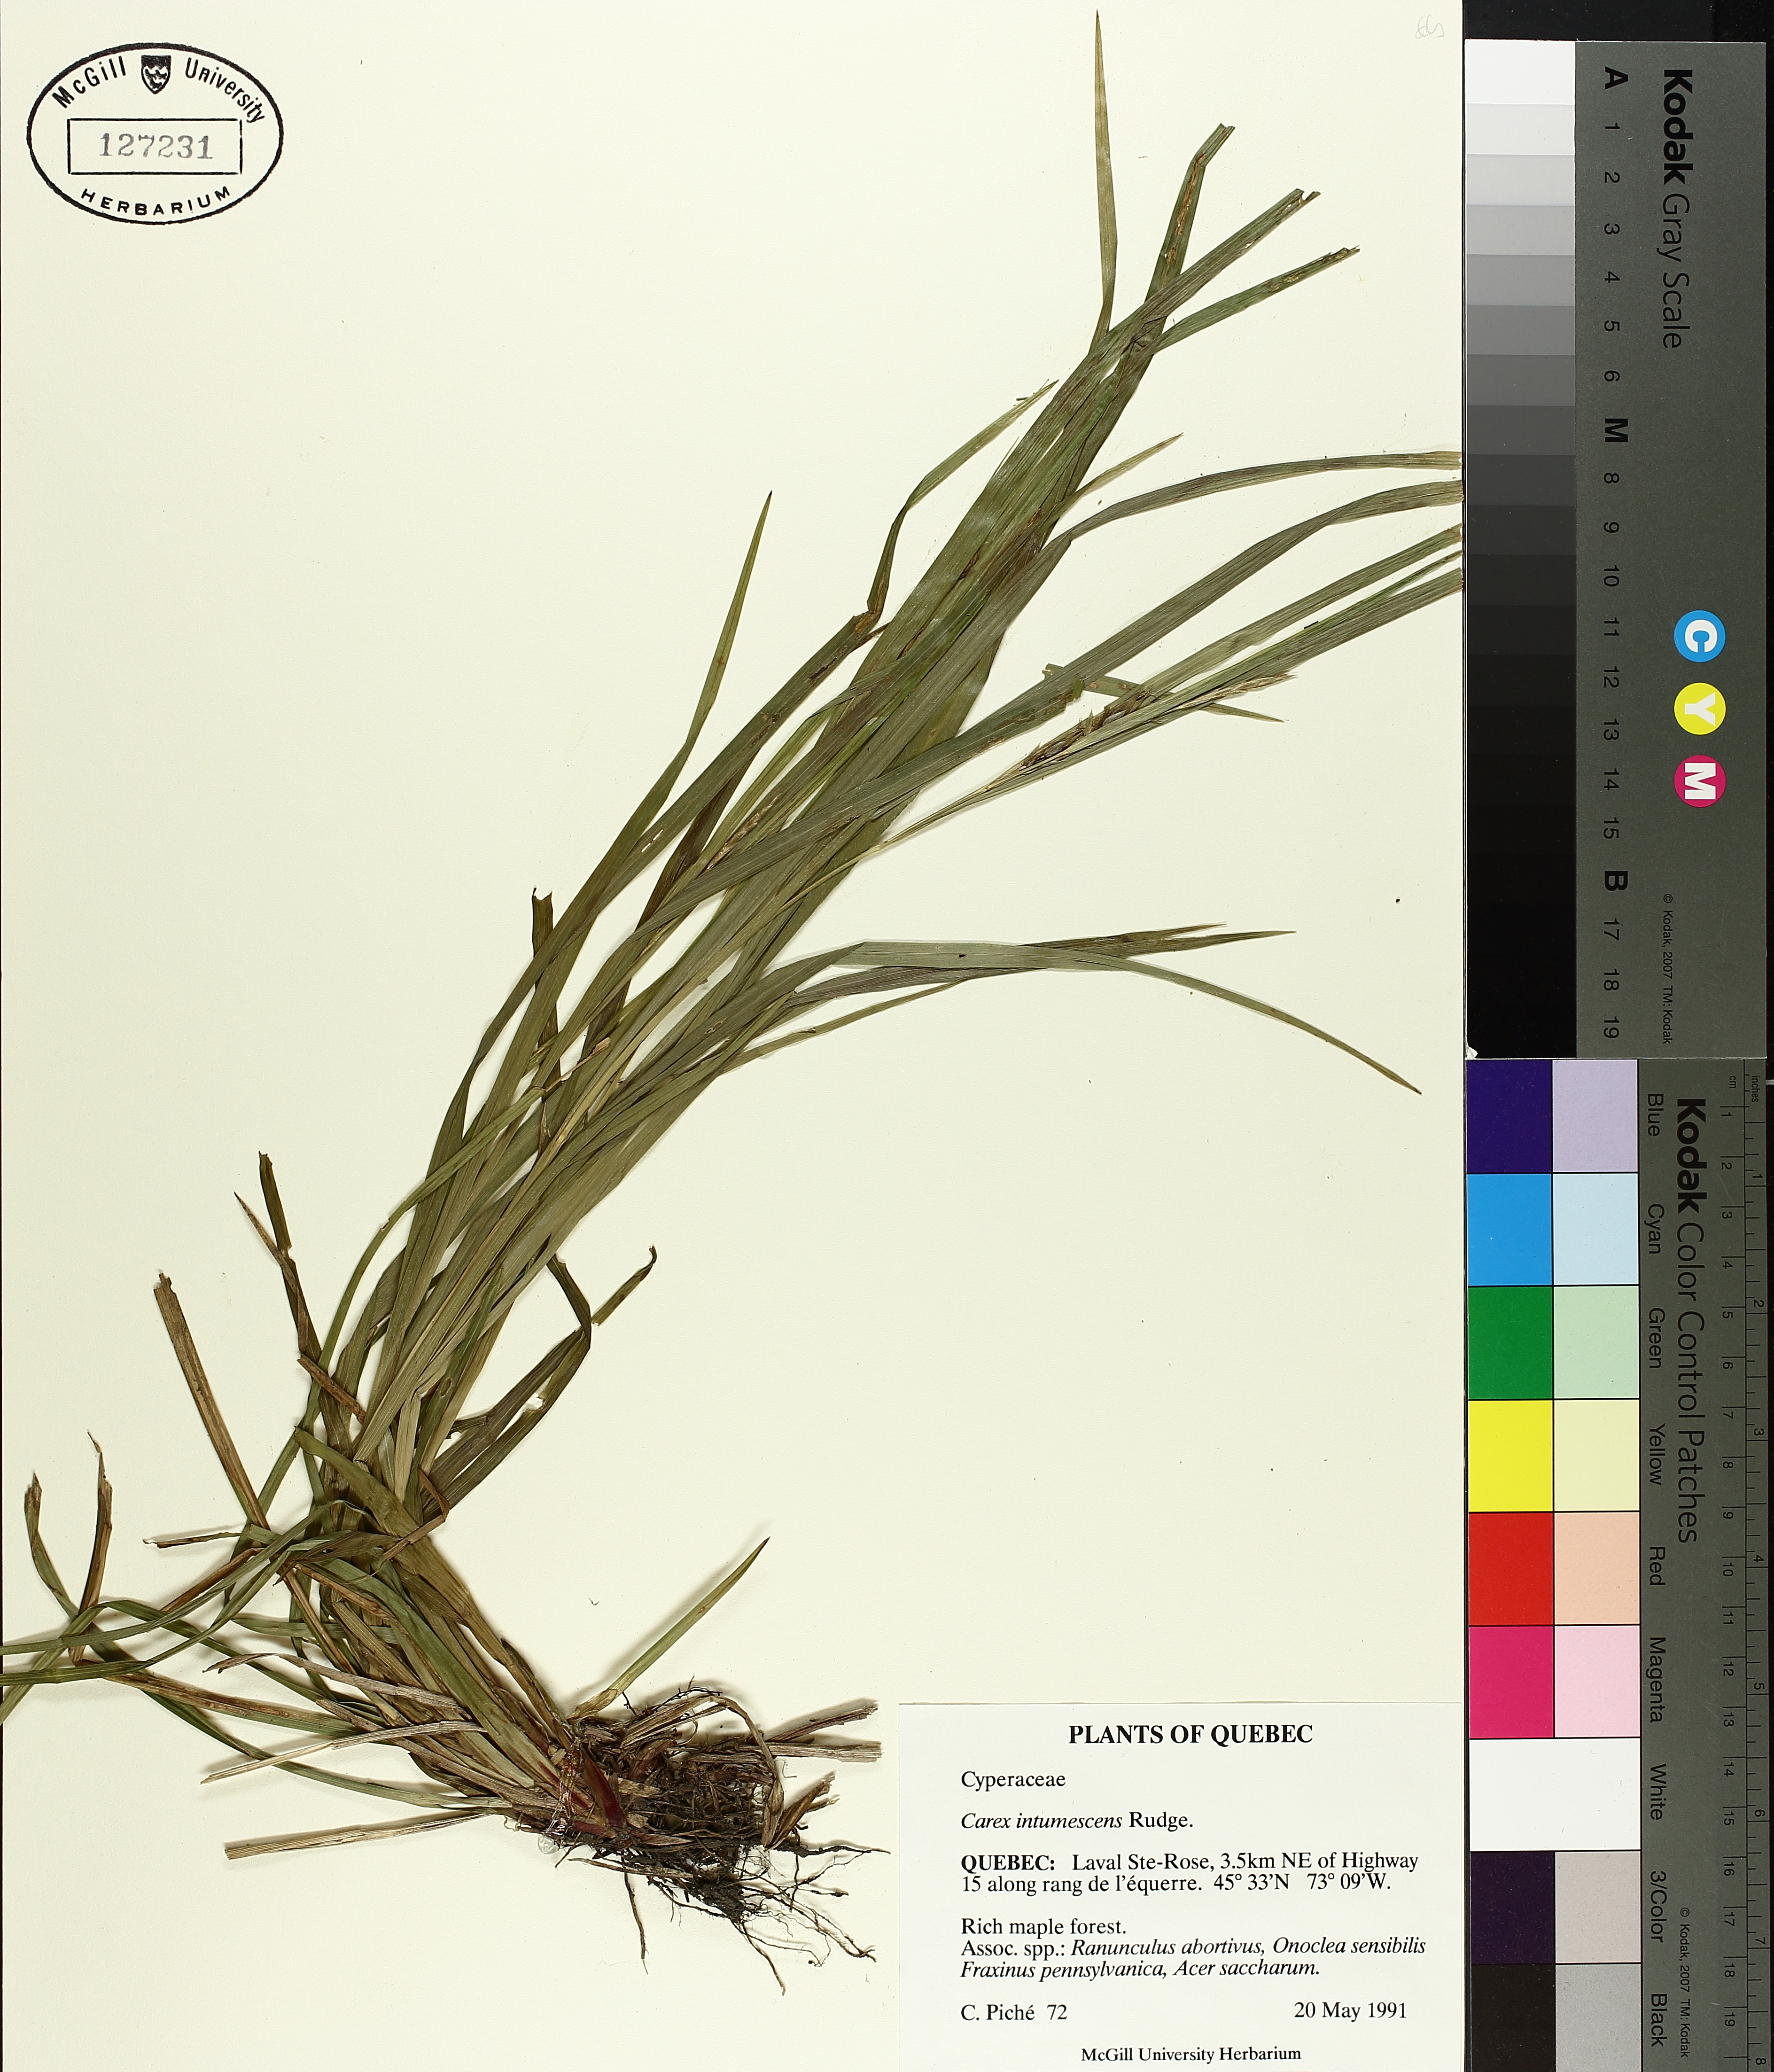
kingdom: Plantae
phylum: Tracheophyta
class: Liliopsida
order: Poales
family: Cyperaceae
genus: Carex
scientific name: Carex intumescens
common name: Greater bladder sedge
